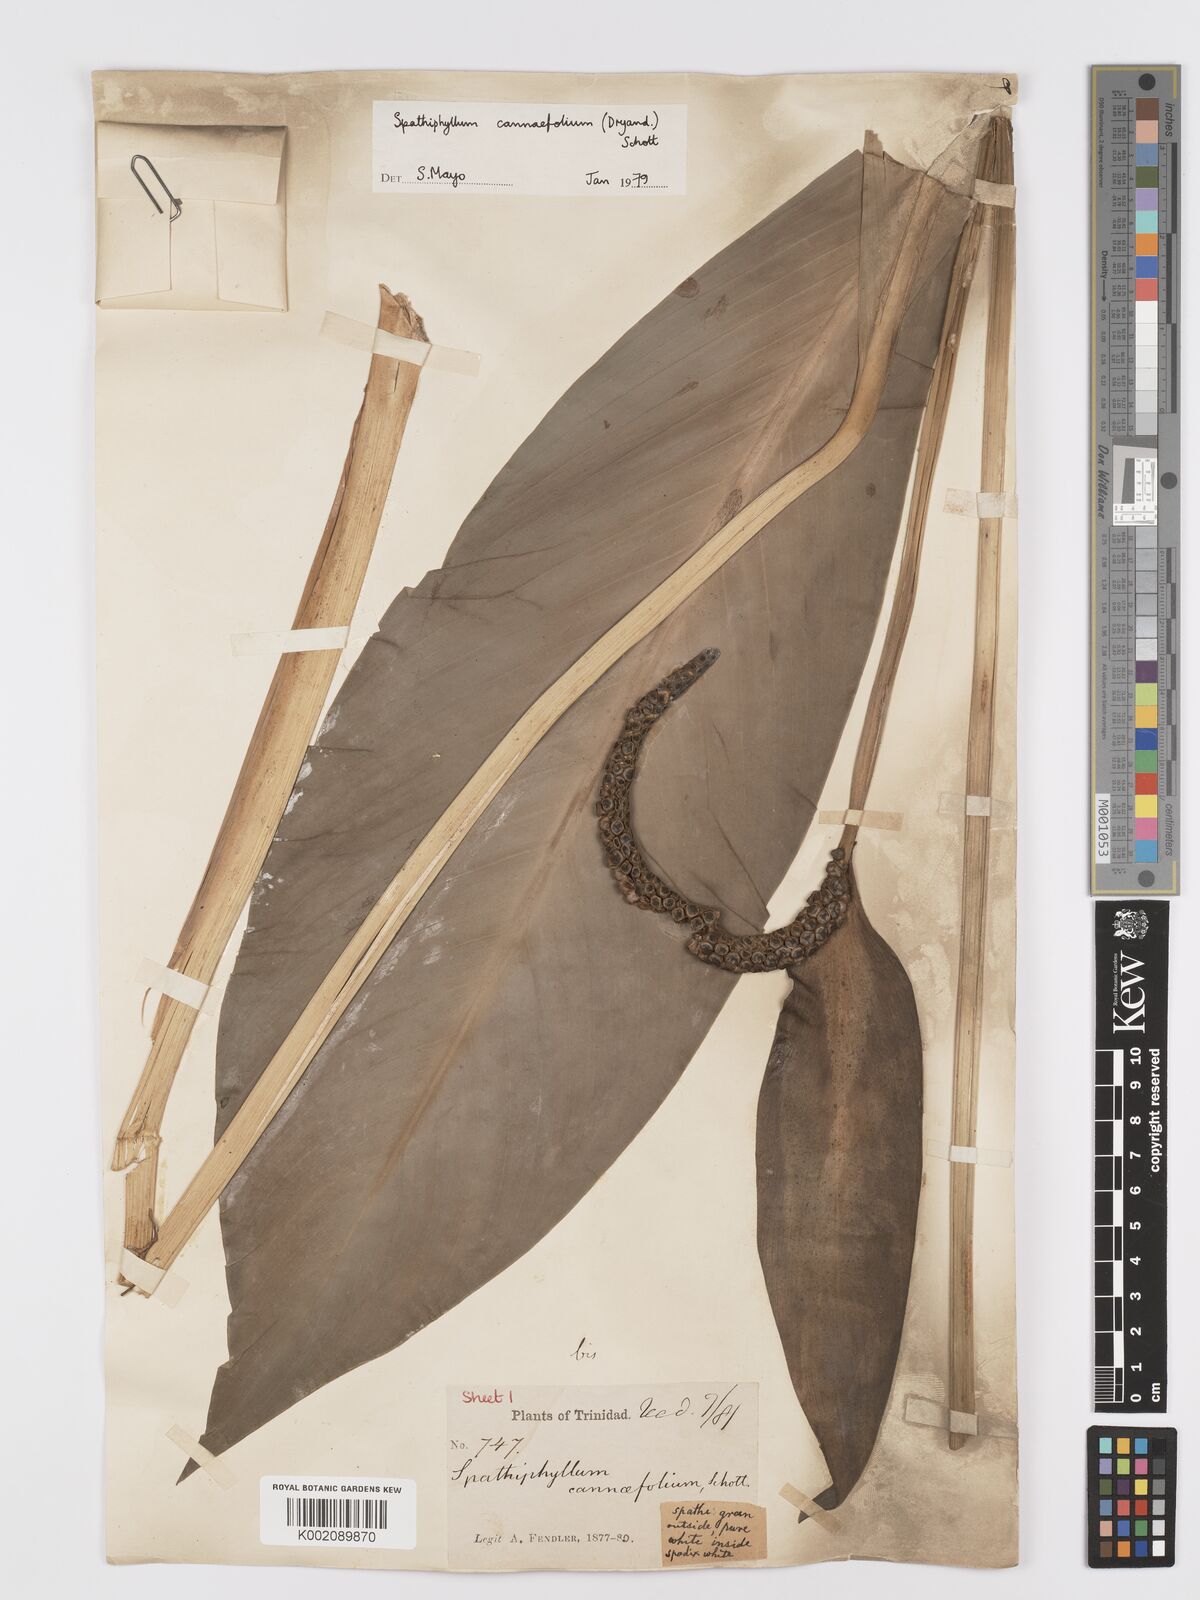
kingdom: Plantae
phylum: Tracheophyta
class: Liliopsida
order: Alismatales
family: Araceae
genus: Spathiphyllum
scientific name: Spathiphyllum cannifolium
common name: Spatheflower
